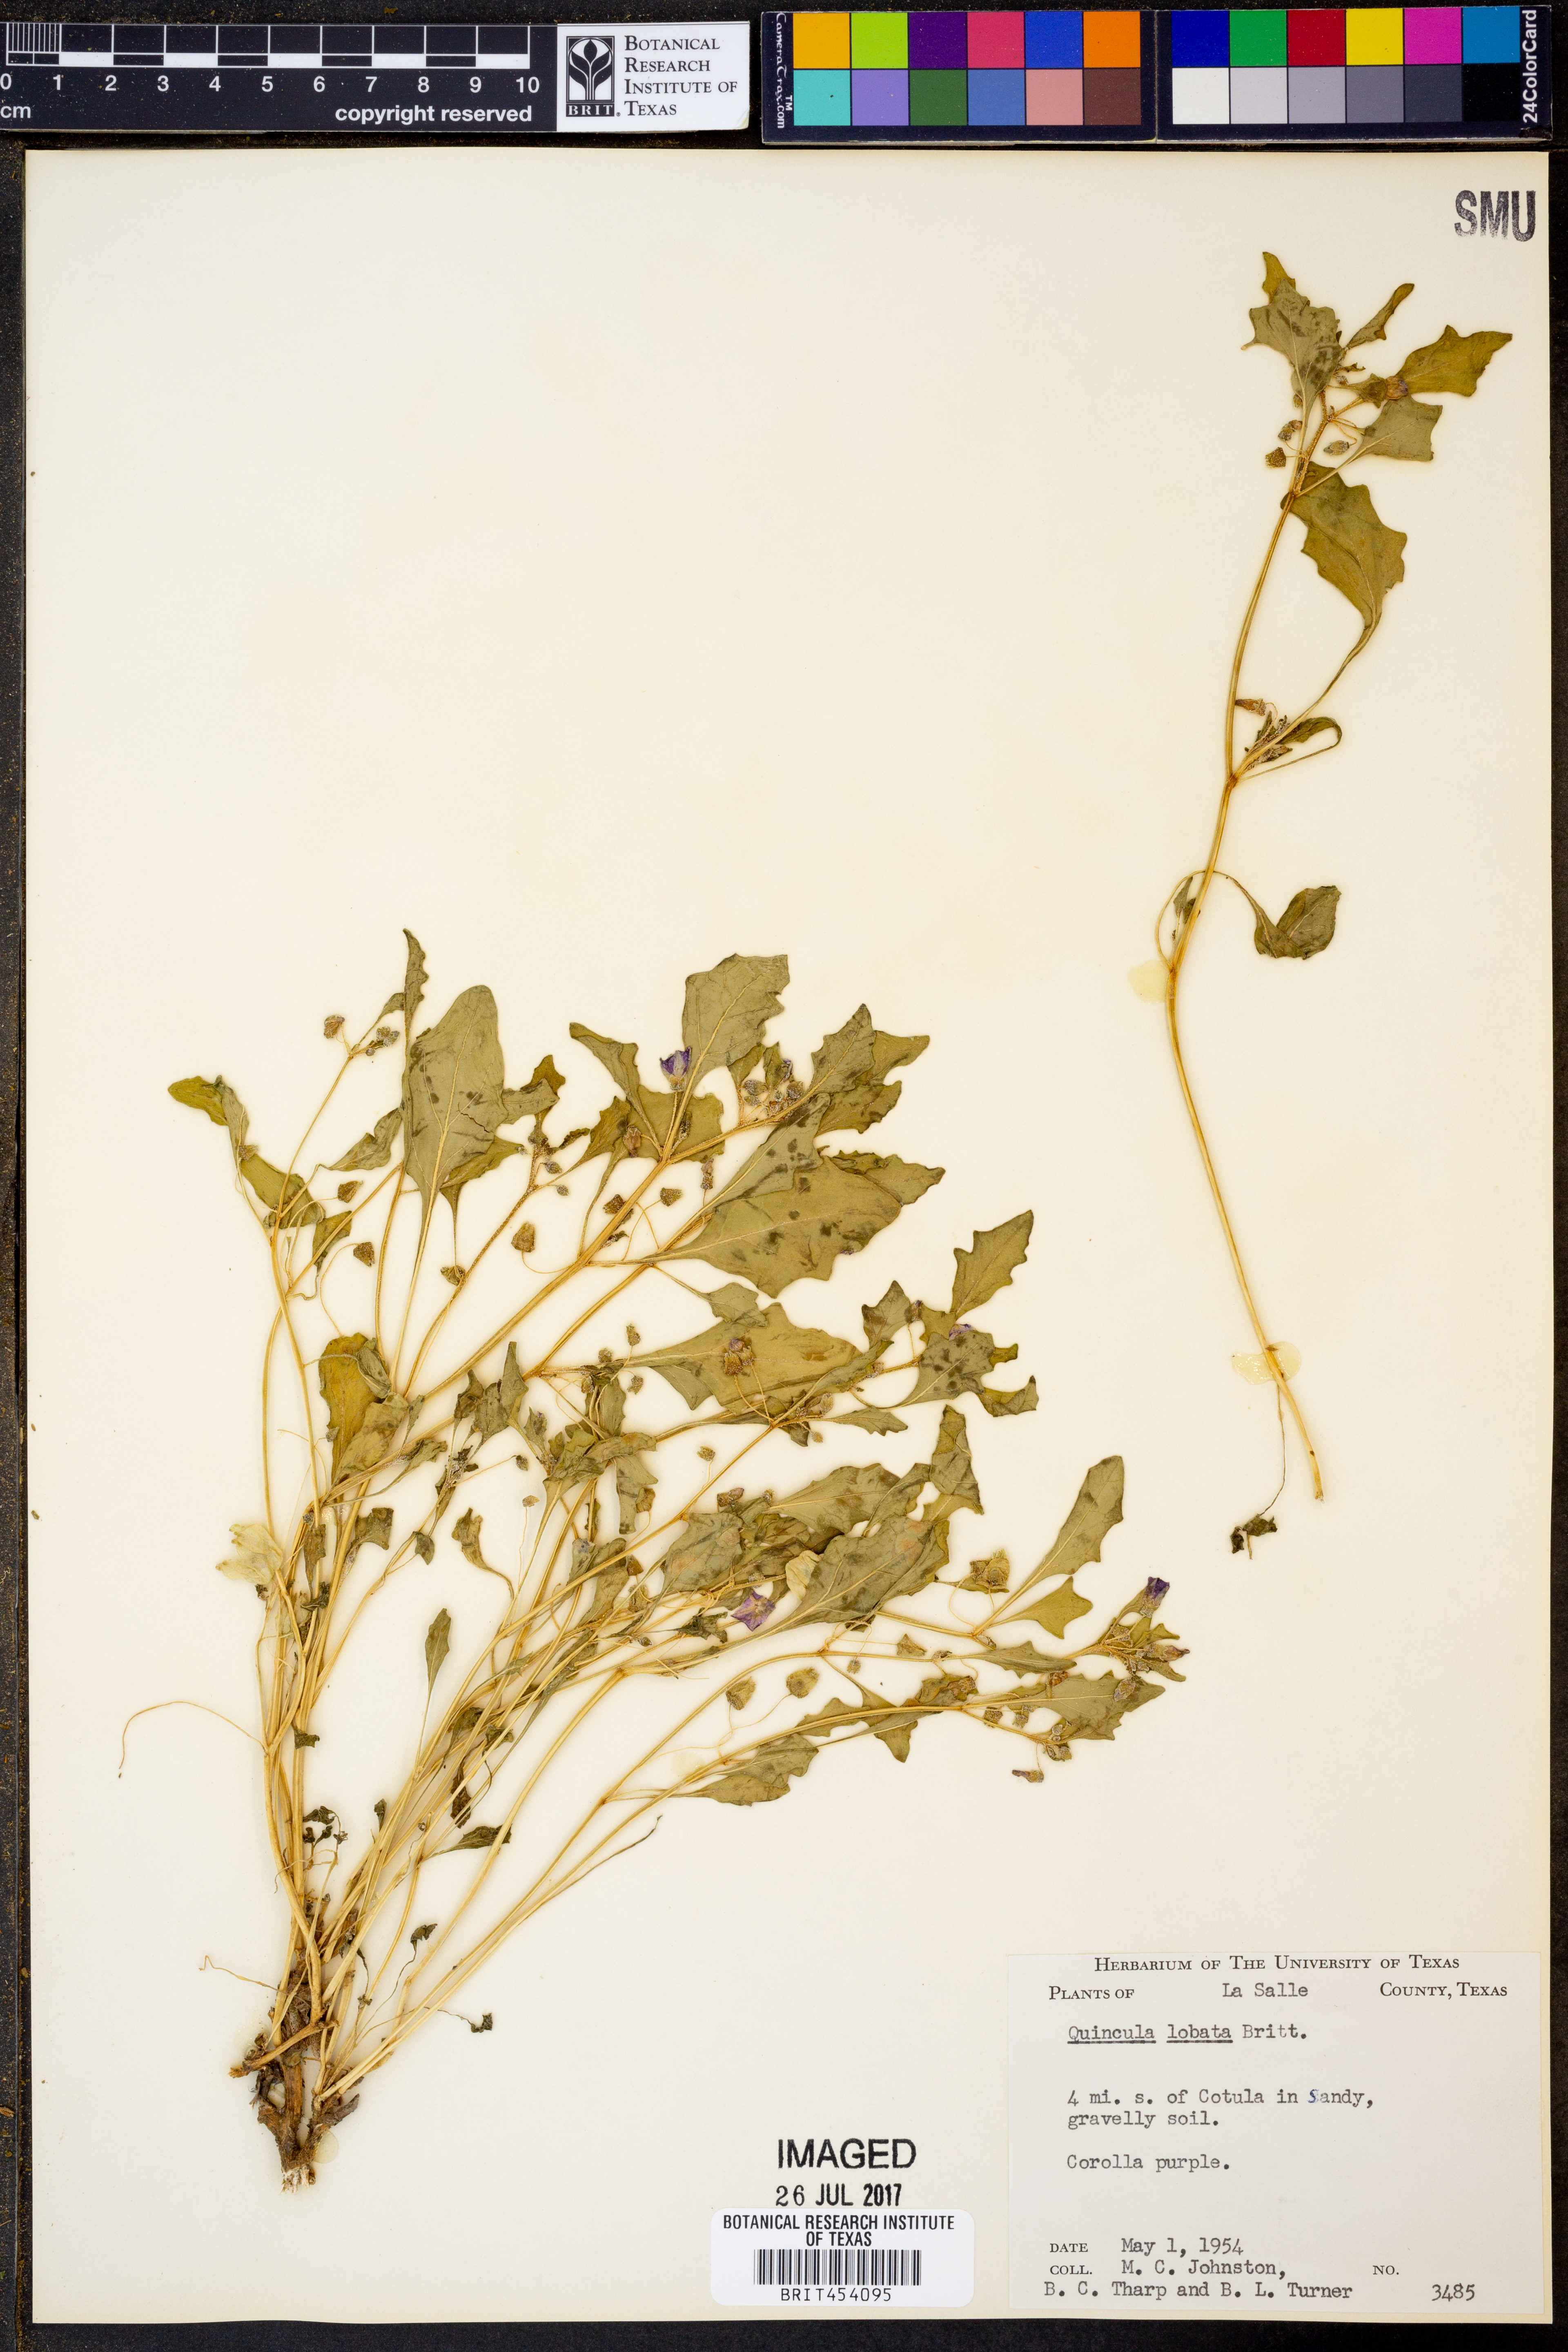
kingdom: Plantae
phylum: Tracheophyta
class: Magnoliopsida
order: Solanales
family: Solanaceae
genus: Quincula
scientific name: Quincula lobata
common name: Purple-ground-cherry
